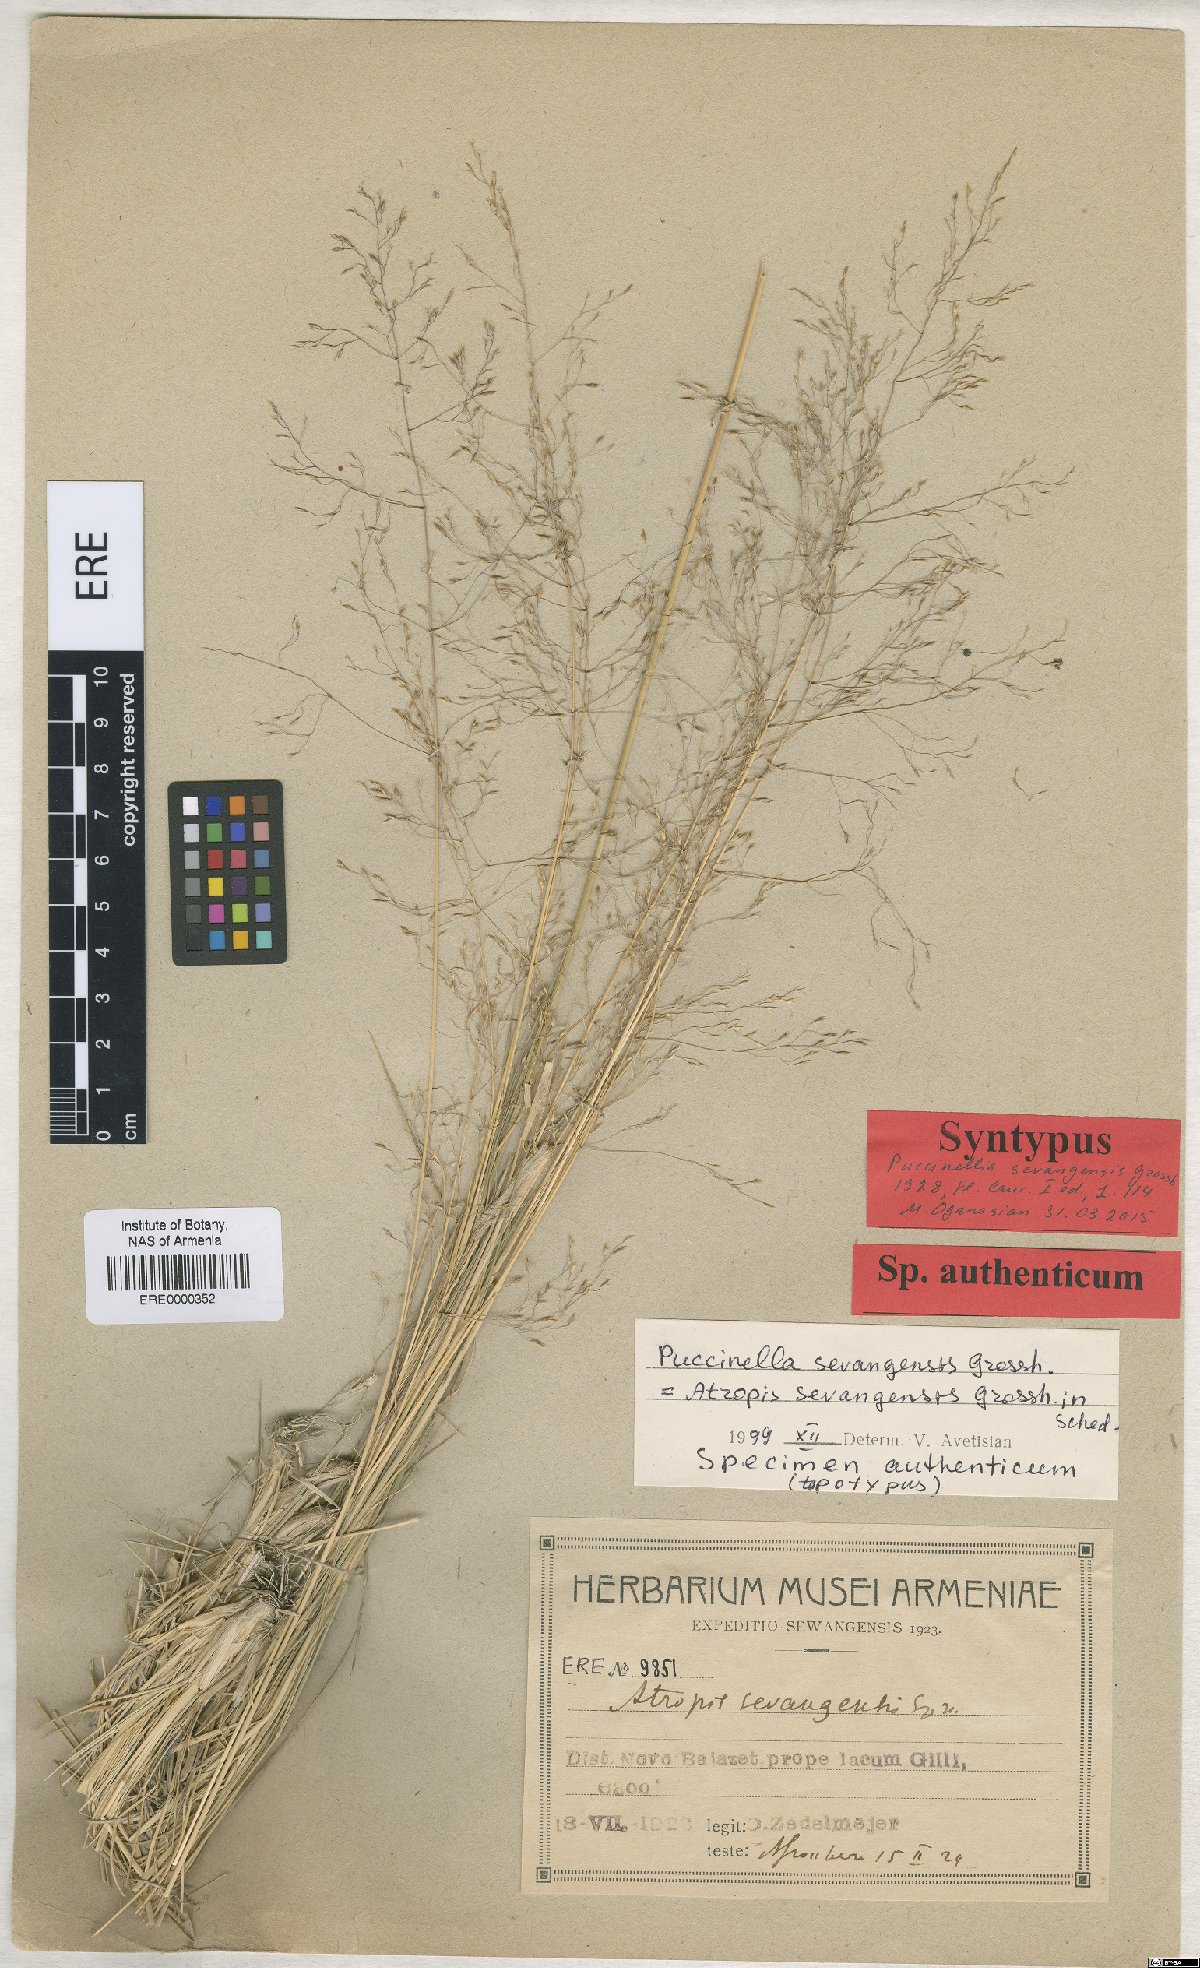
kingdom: Plantae
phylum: Tracheophyta
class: Liliopsida
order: Poales
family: Poaceae
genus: Puccinellia
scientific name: Puccinellia distans
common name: Weeping alkaligrass
